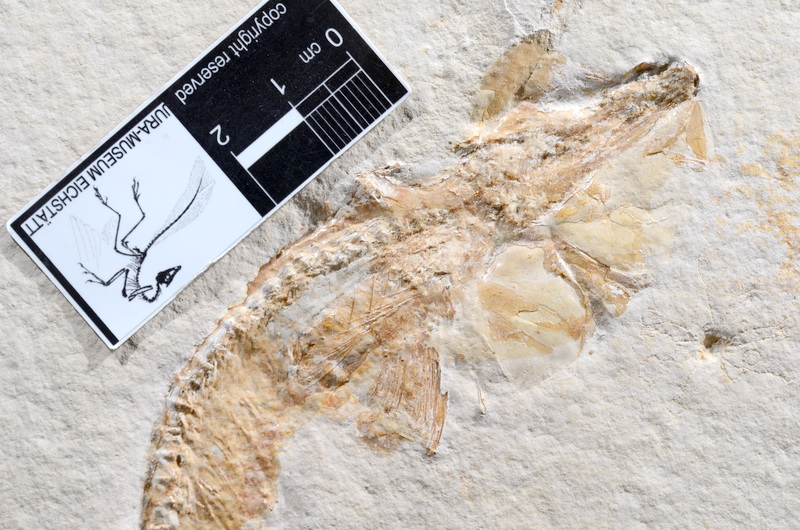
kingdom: Animalia
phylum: Chordata
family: Allothrissopidae
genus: Allothrissops
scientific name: Allothrissops
